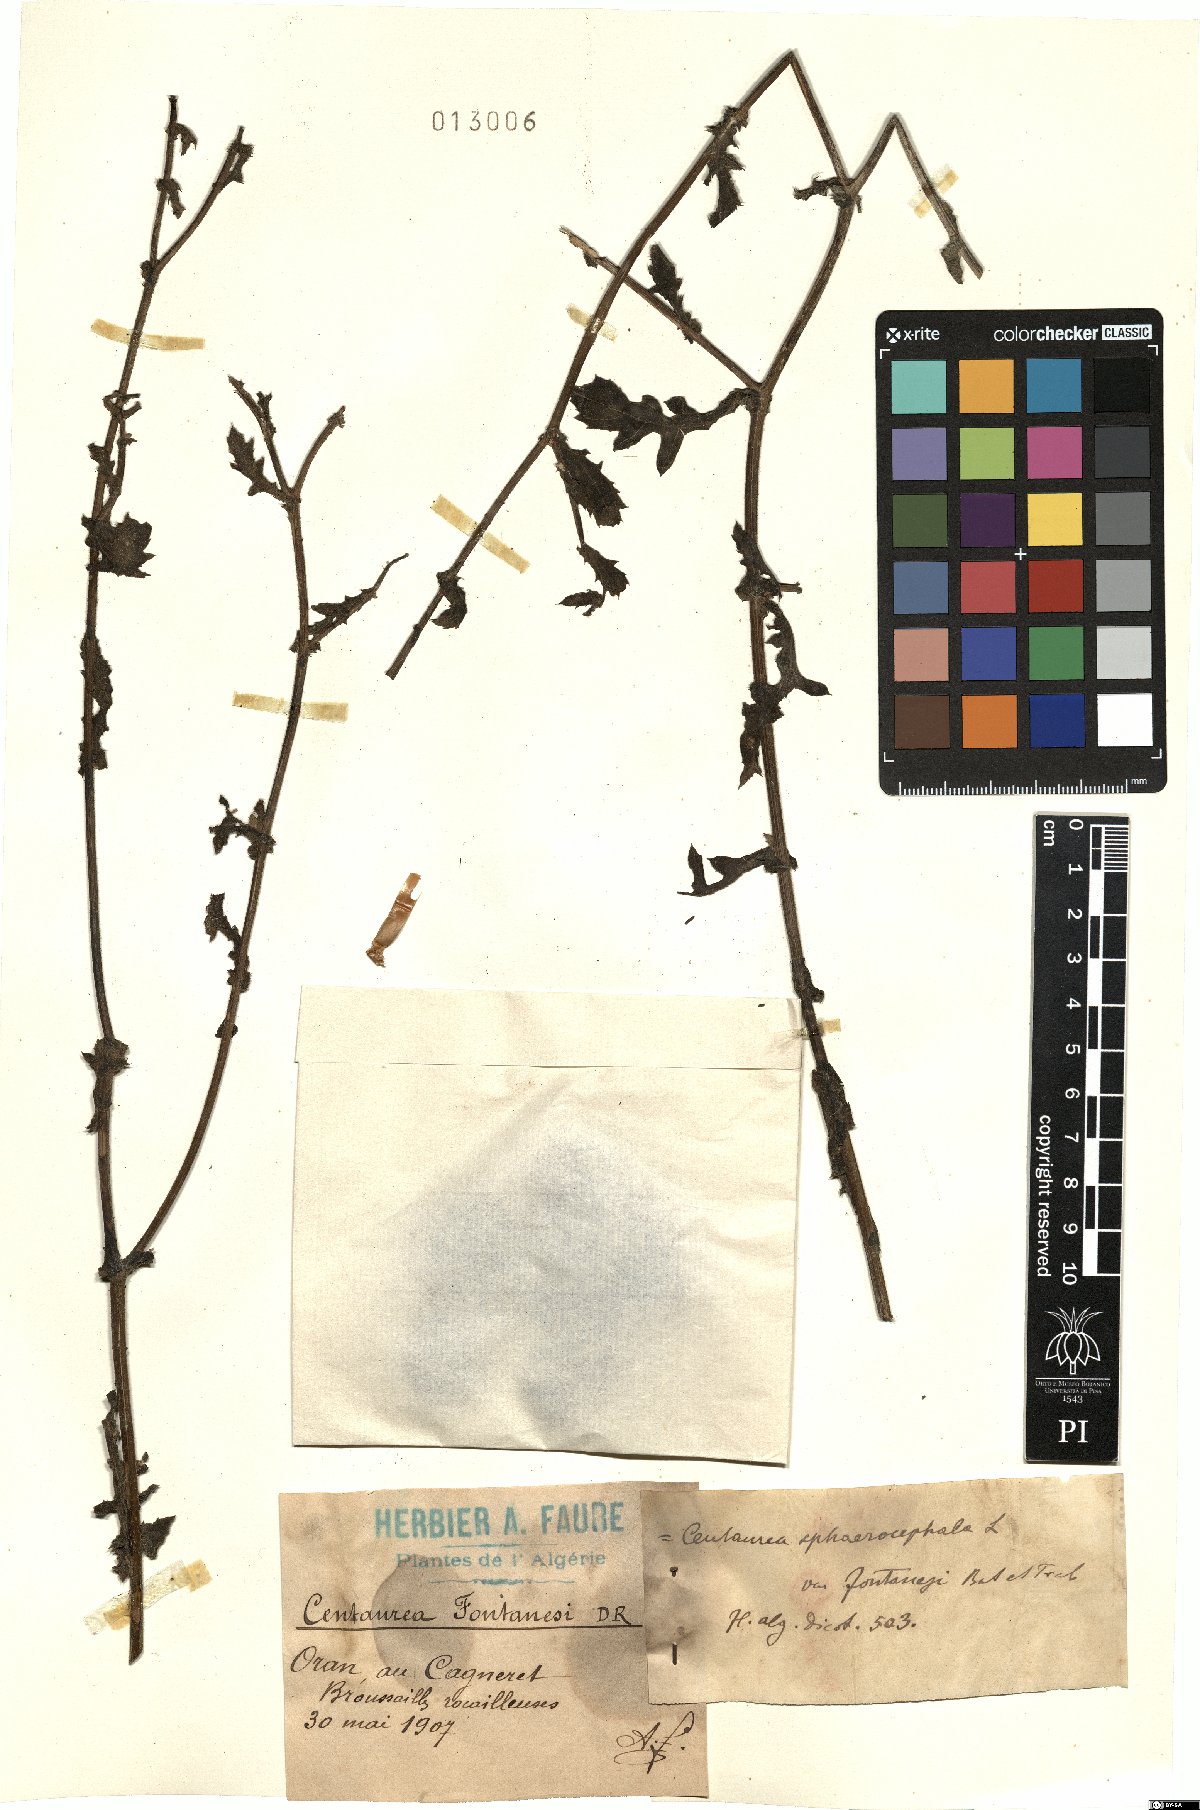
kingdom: Plantae
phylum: Tracheophyta
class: Magnoliopsida
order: Asterales
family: Asteraceae
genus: Centaurea
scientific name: Centaurea sphaerocephala
